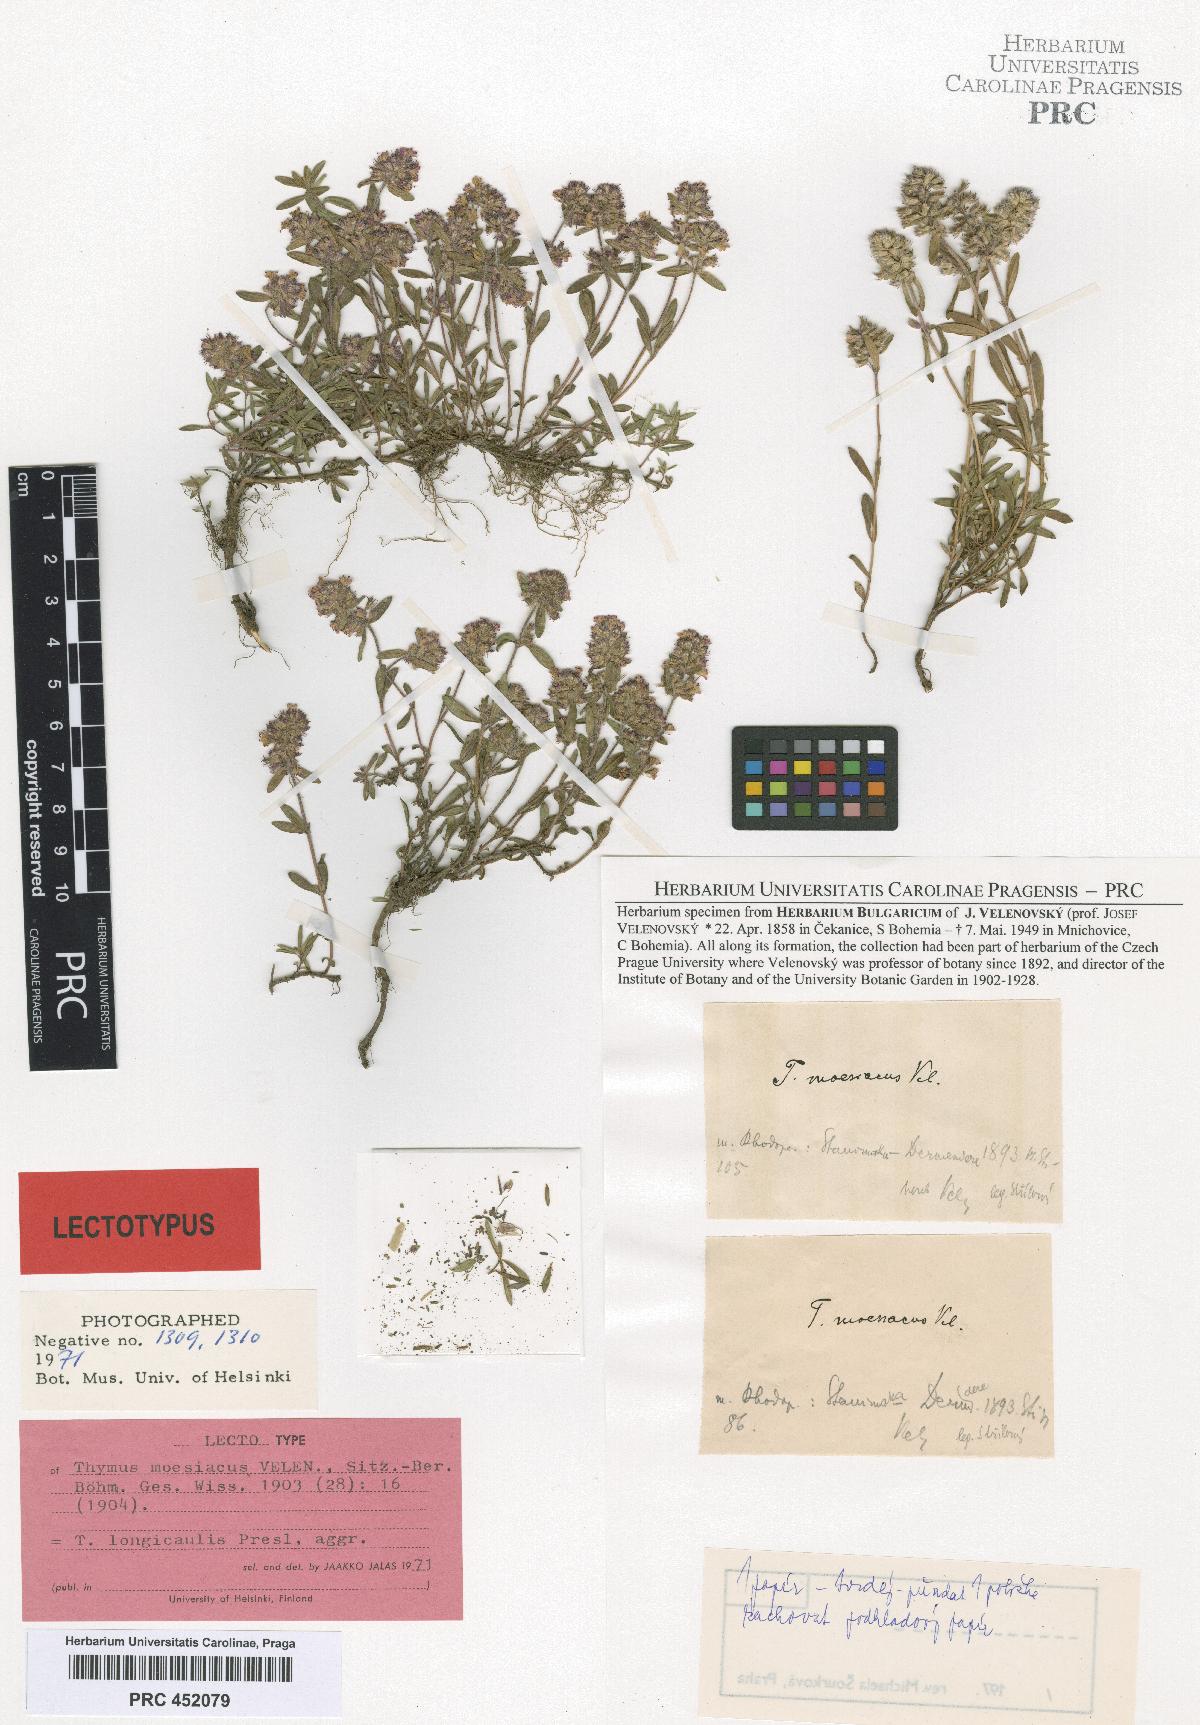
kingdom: Plantae
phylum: Tracheophyta
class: Magnoliopsida
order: Lamiales
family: Lamiaceae
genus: Thymus
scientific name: Thymus longicaulis
